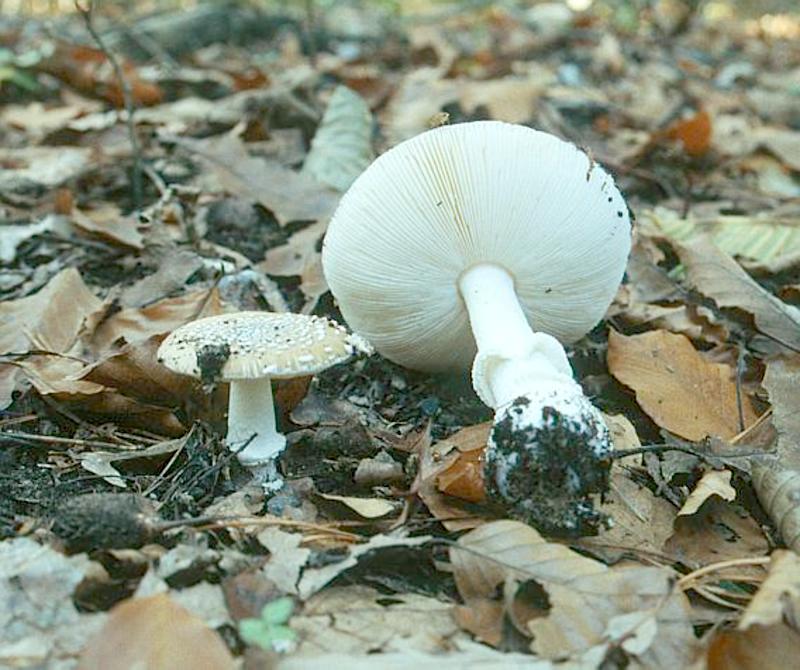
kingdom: Fungi
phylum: Basidiomycota
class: Agaricomycetes
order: Agaricales
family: Amanitaceae
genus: Amanita
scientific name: Amanita pantherina
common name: Panthercap
